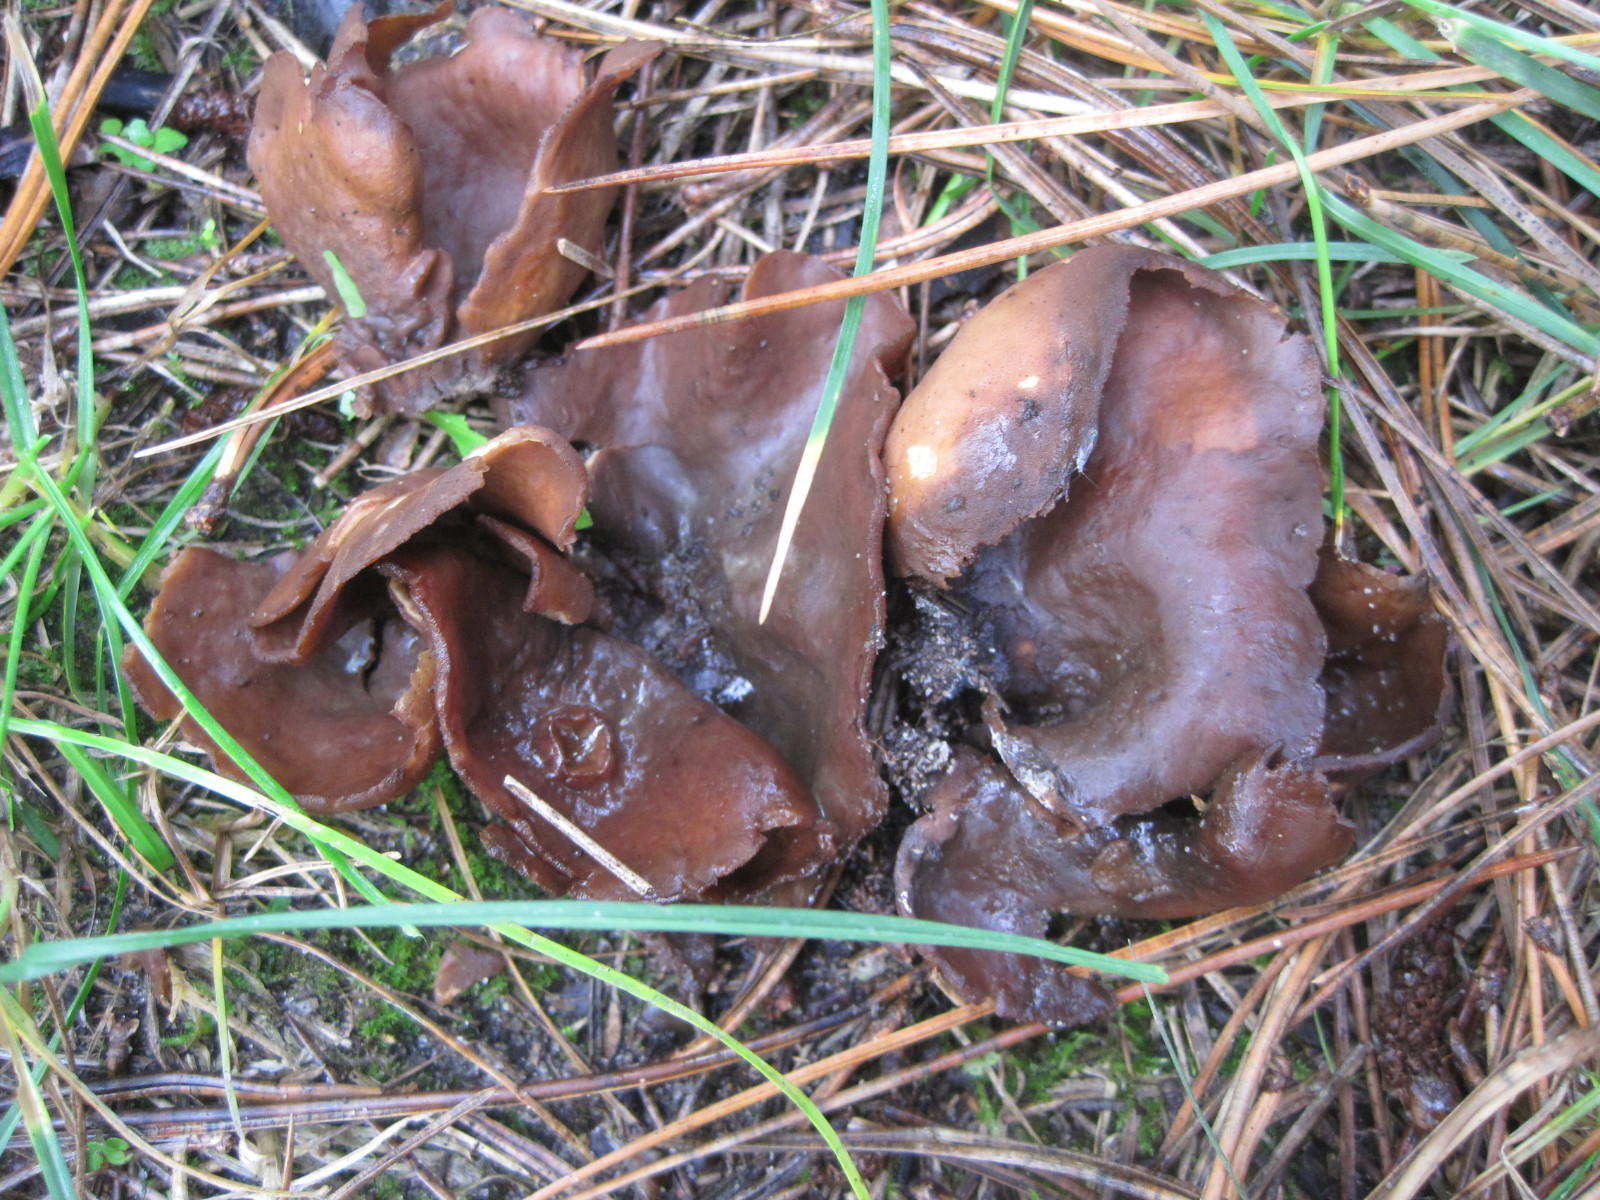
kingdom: Fungi
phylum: Ascomycota
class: Pezizomycetes
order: Pezizales
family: Otideaceae
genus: Otidea
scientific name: Otidea bufonia
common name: brun ørebæger
